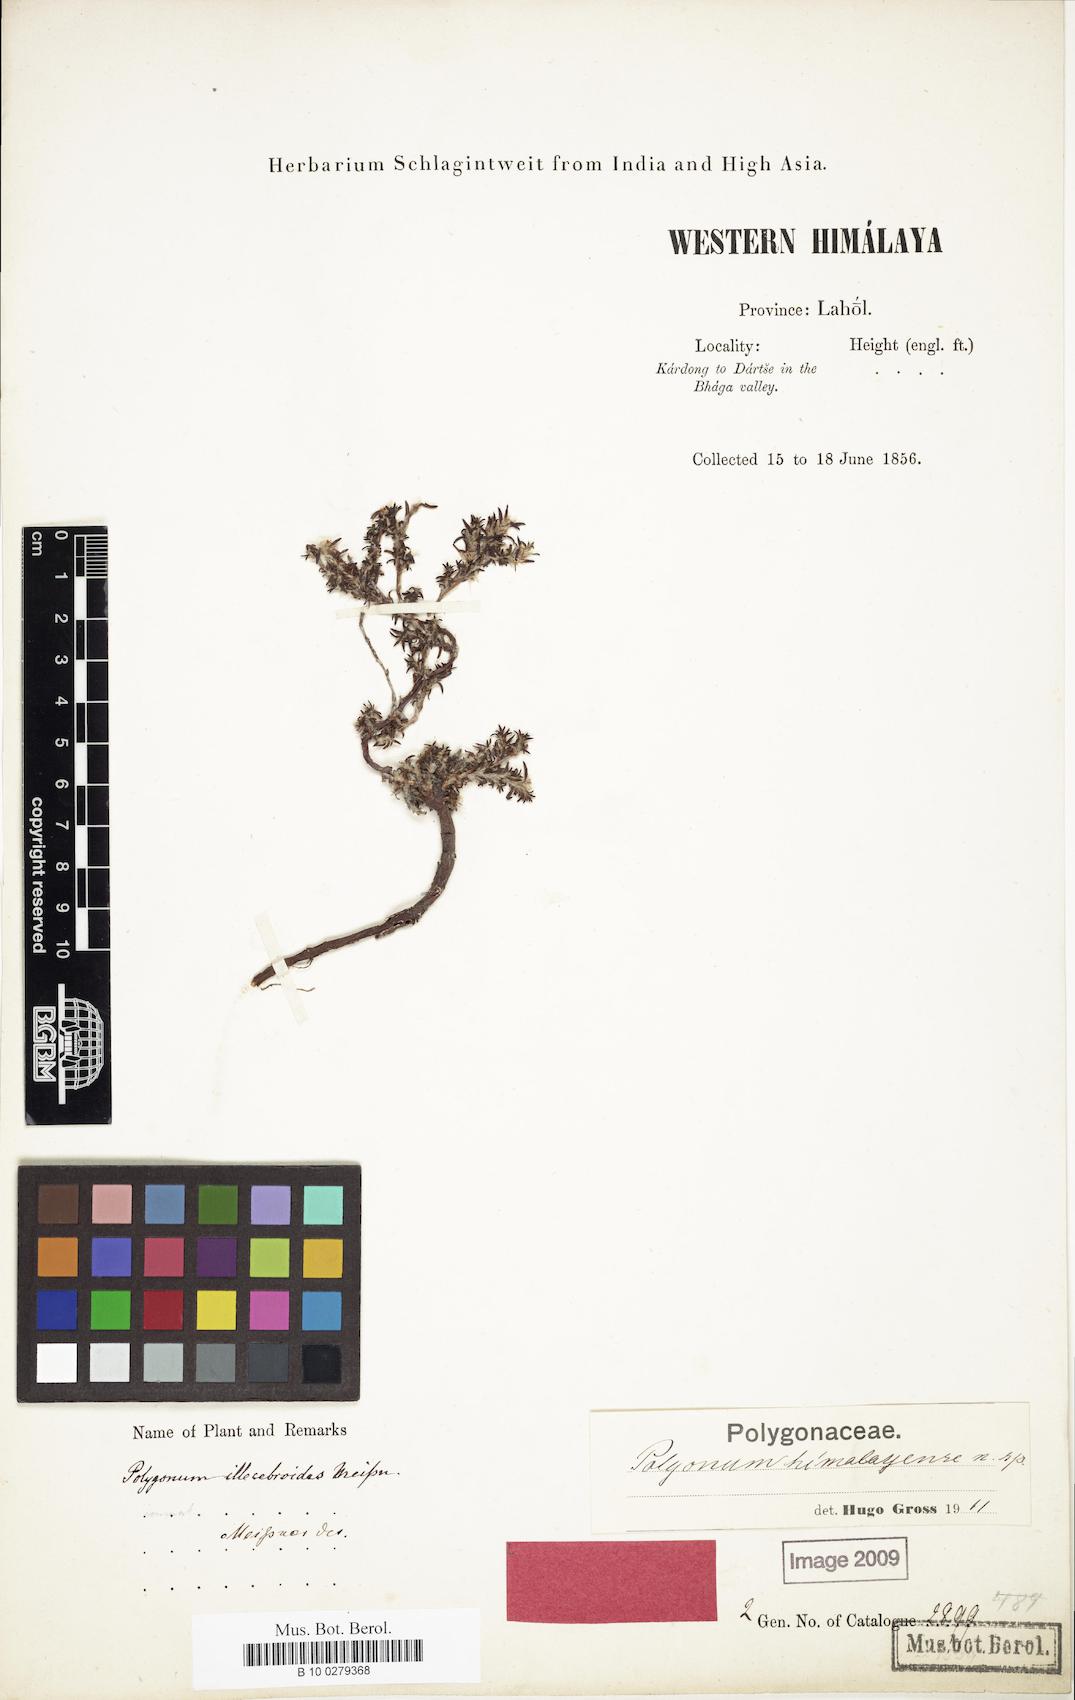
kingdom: Plantae
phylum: Tracheophyta
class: Magnoliopsida
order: Caryophyllales
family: Polygonaceae
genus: Polygonum
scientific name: Polygonum paronychioides
